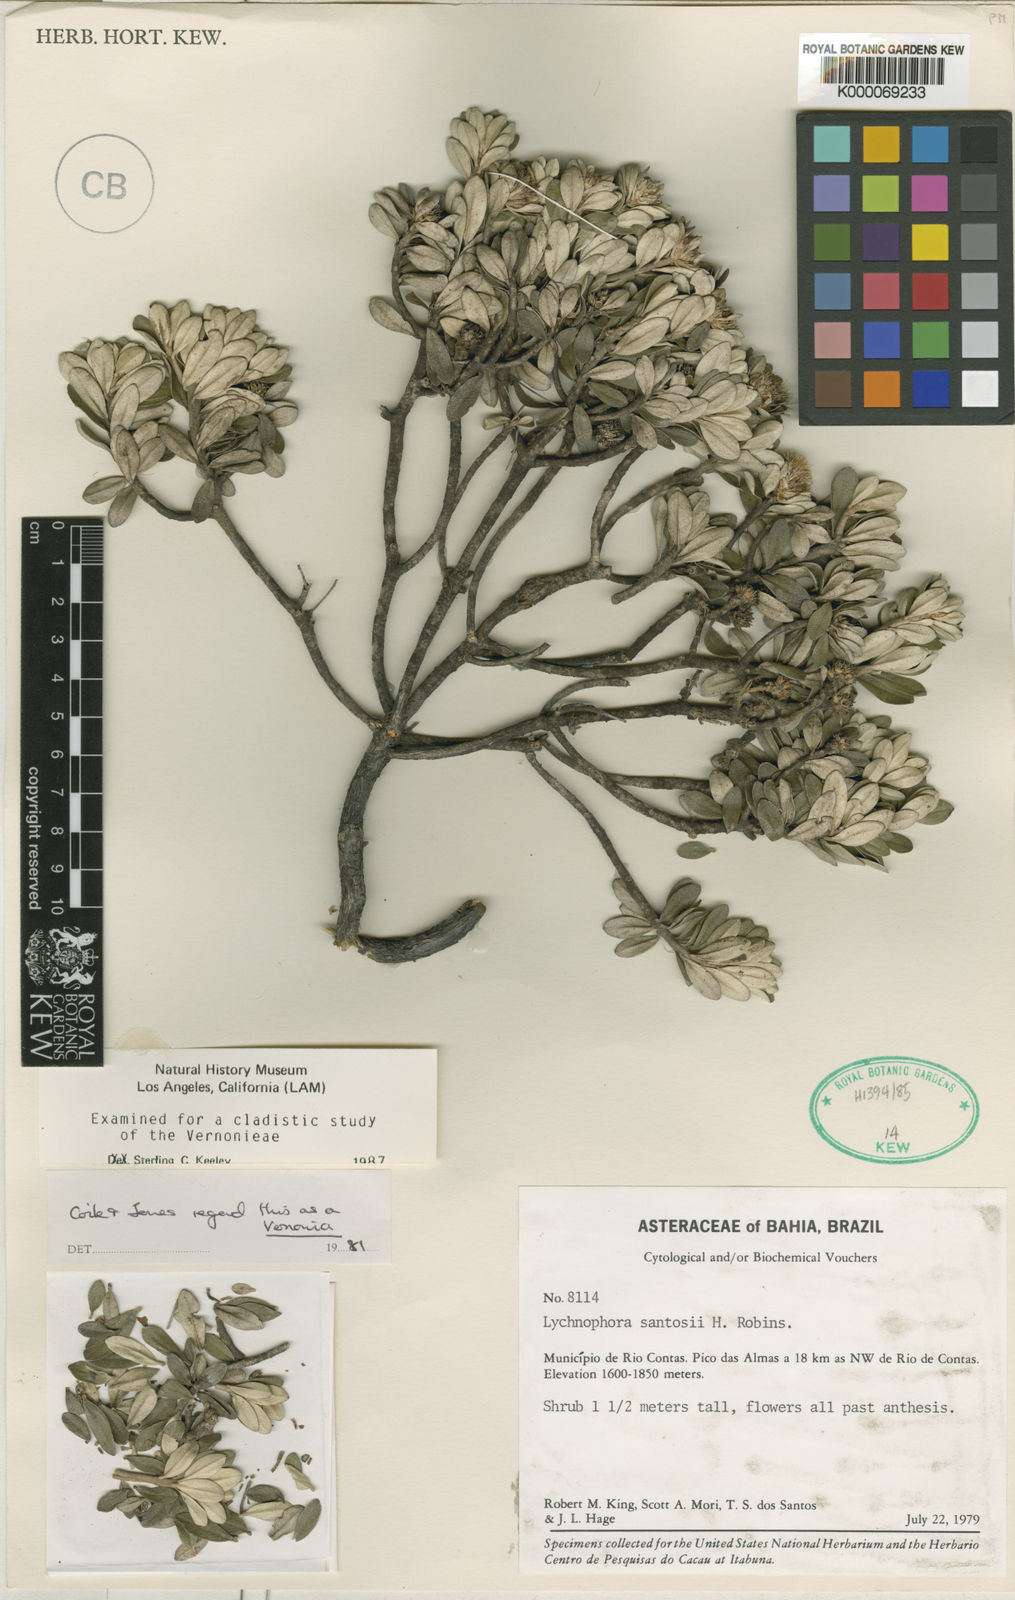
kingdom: Plantae
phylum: Tracheophyta
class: Magnoliopsida
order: Asterales
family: Asteraceae
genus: Lychnophorella
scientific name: Lychnophorella santosii
